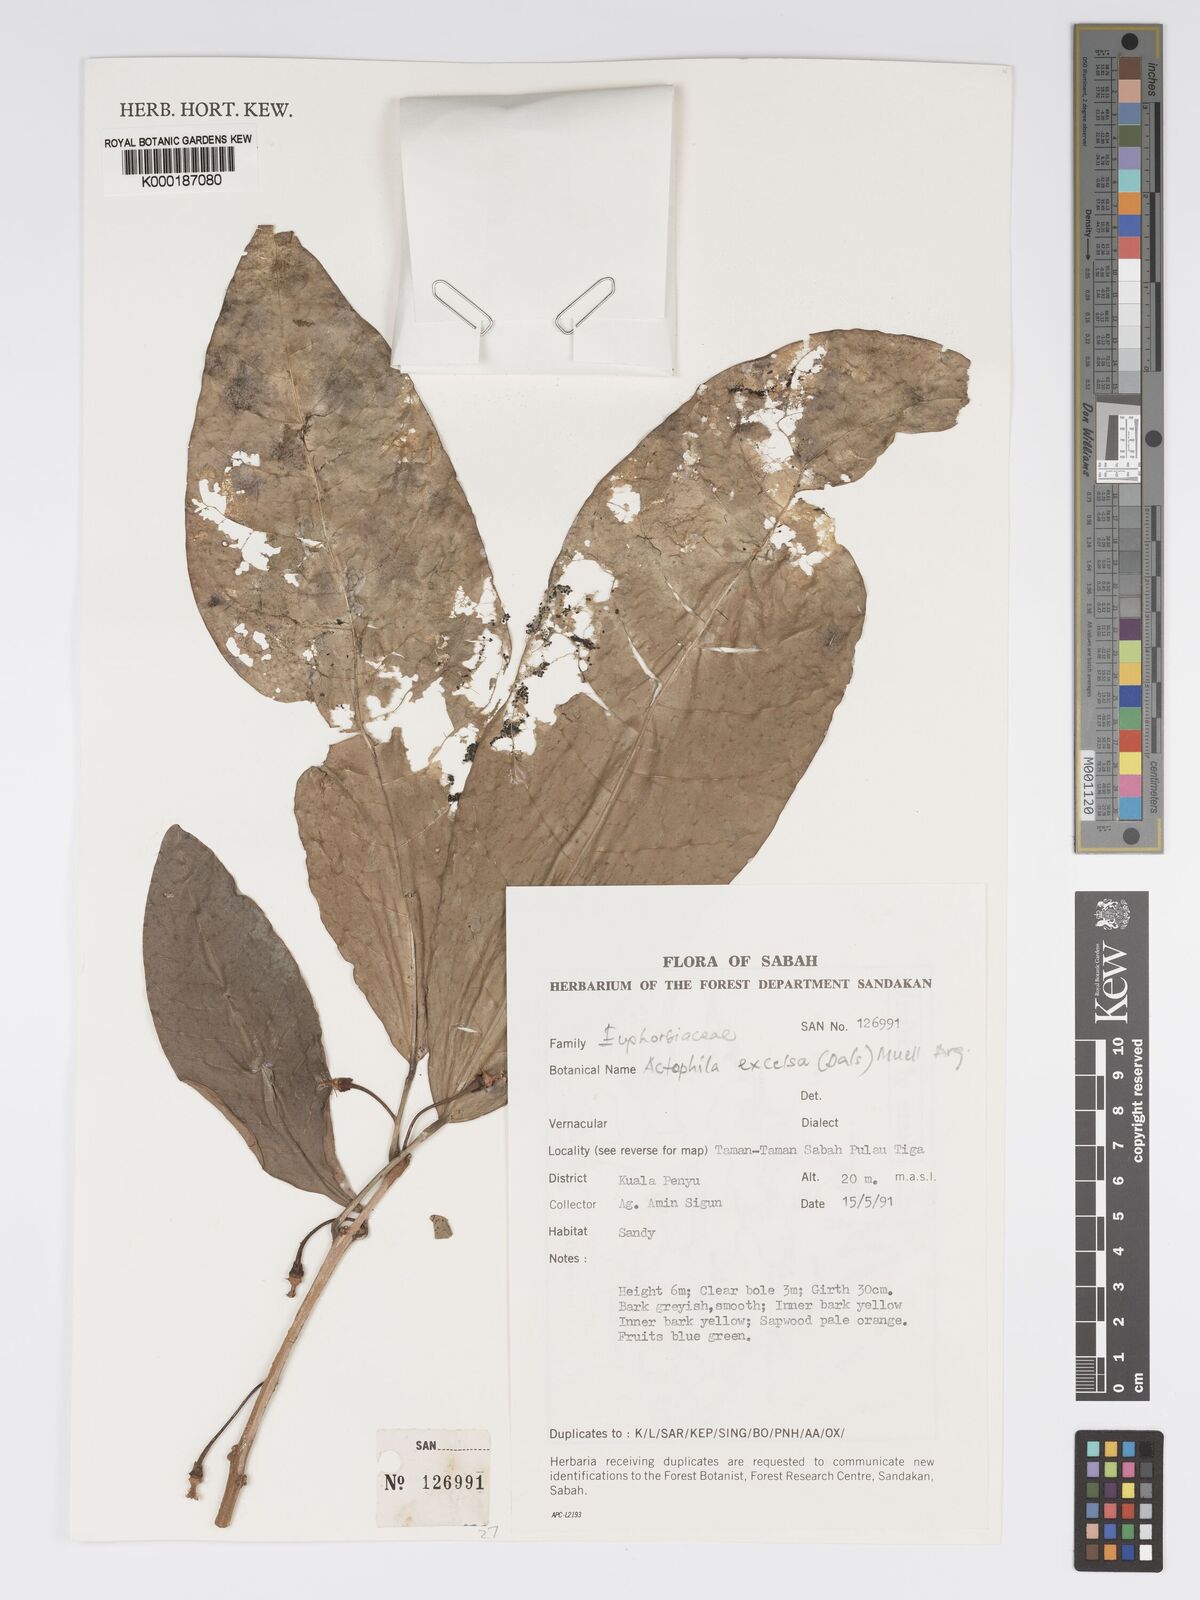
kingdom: Plantae
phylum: Tracheophyta
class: Magnoliopsida
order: Malpighiales
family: Phyllanthaceae
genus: Actephila
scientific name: Actephila
